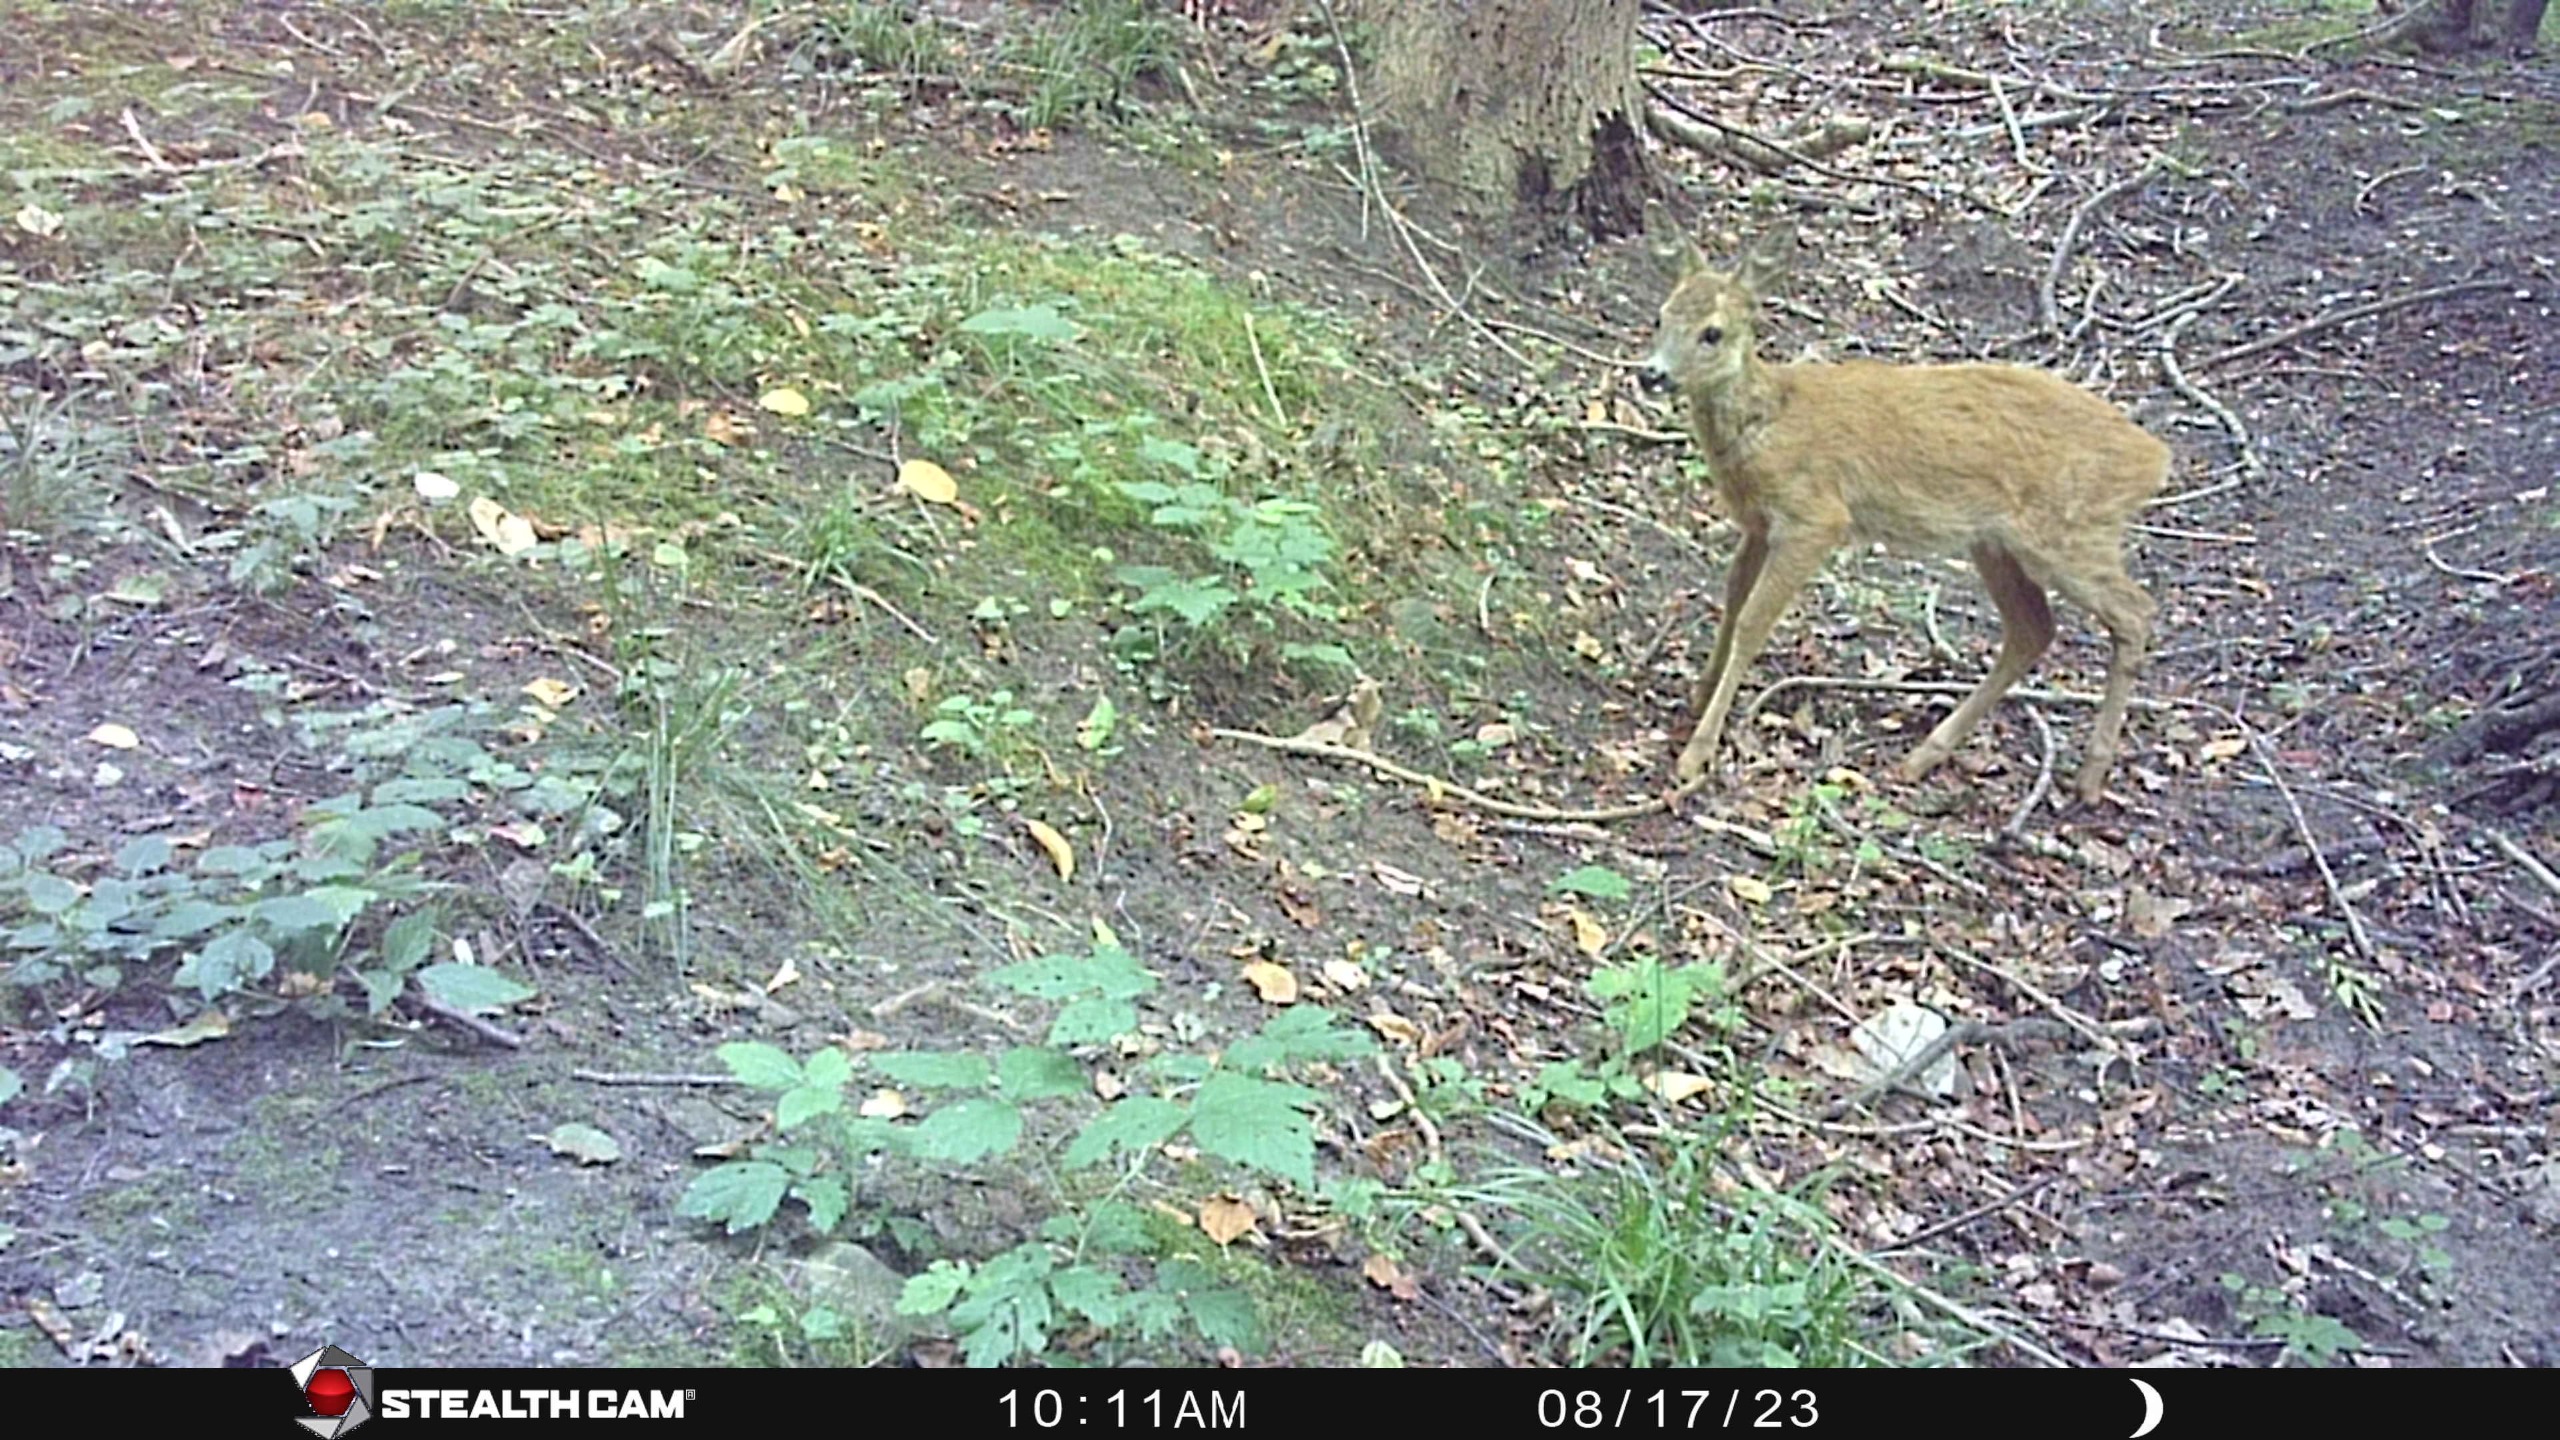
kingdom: Animalia
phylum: Chordata
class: Mammalia
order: Artiodactyla
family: Cervidae
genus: Capreolus
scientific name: Capreolus capreolus
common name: Rådyr
